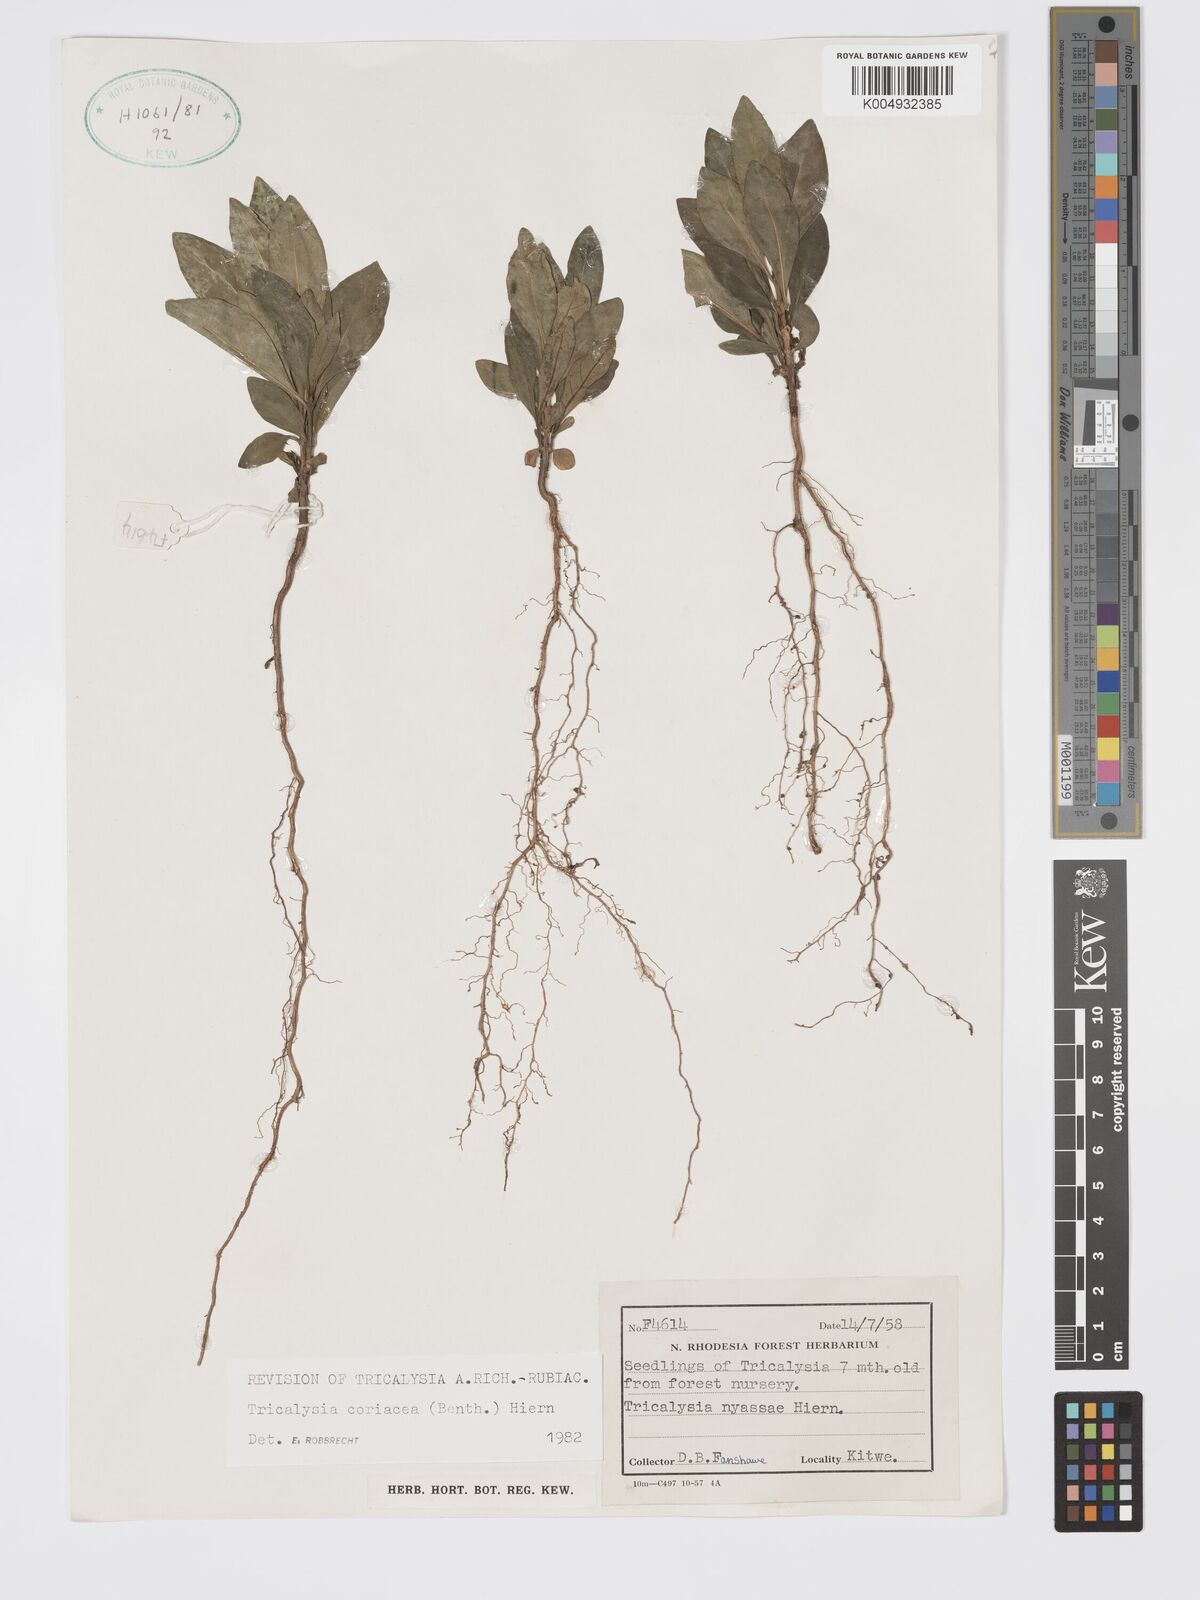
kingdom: Plantae
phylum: Tracheophyta
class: Magnoliopsida
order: Gentianales
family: Rubiaceae
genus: Tricalysia
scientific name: Tricalysia coriacea
